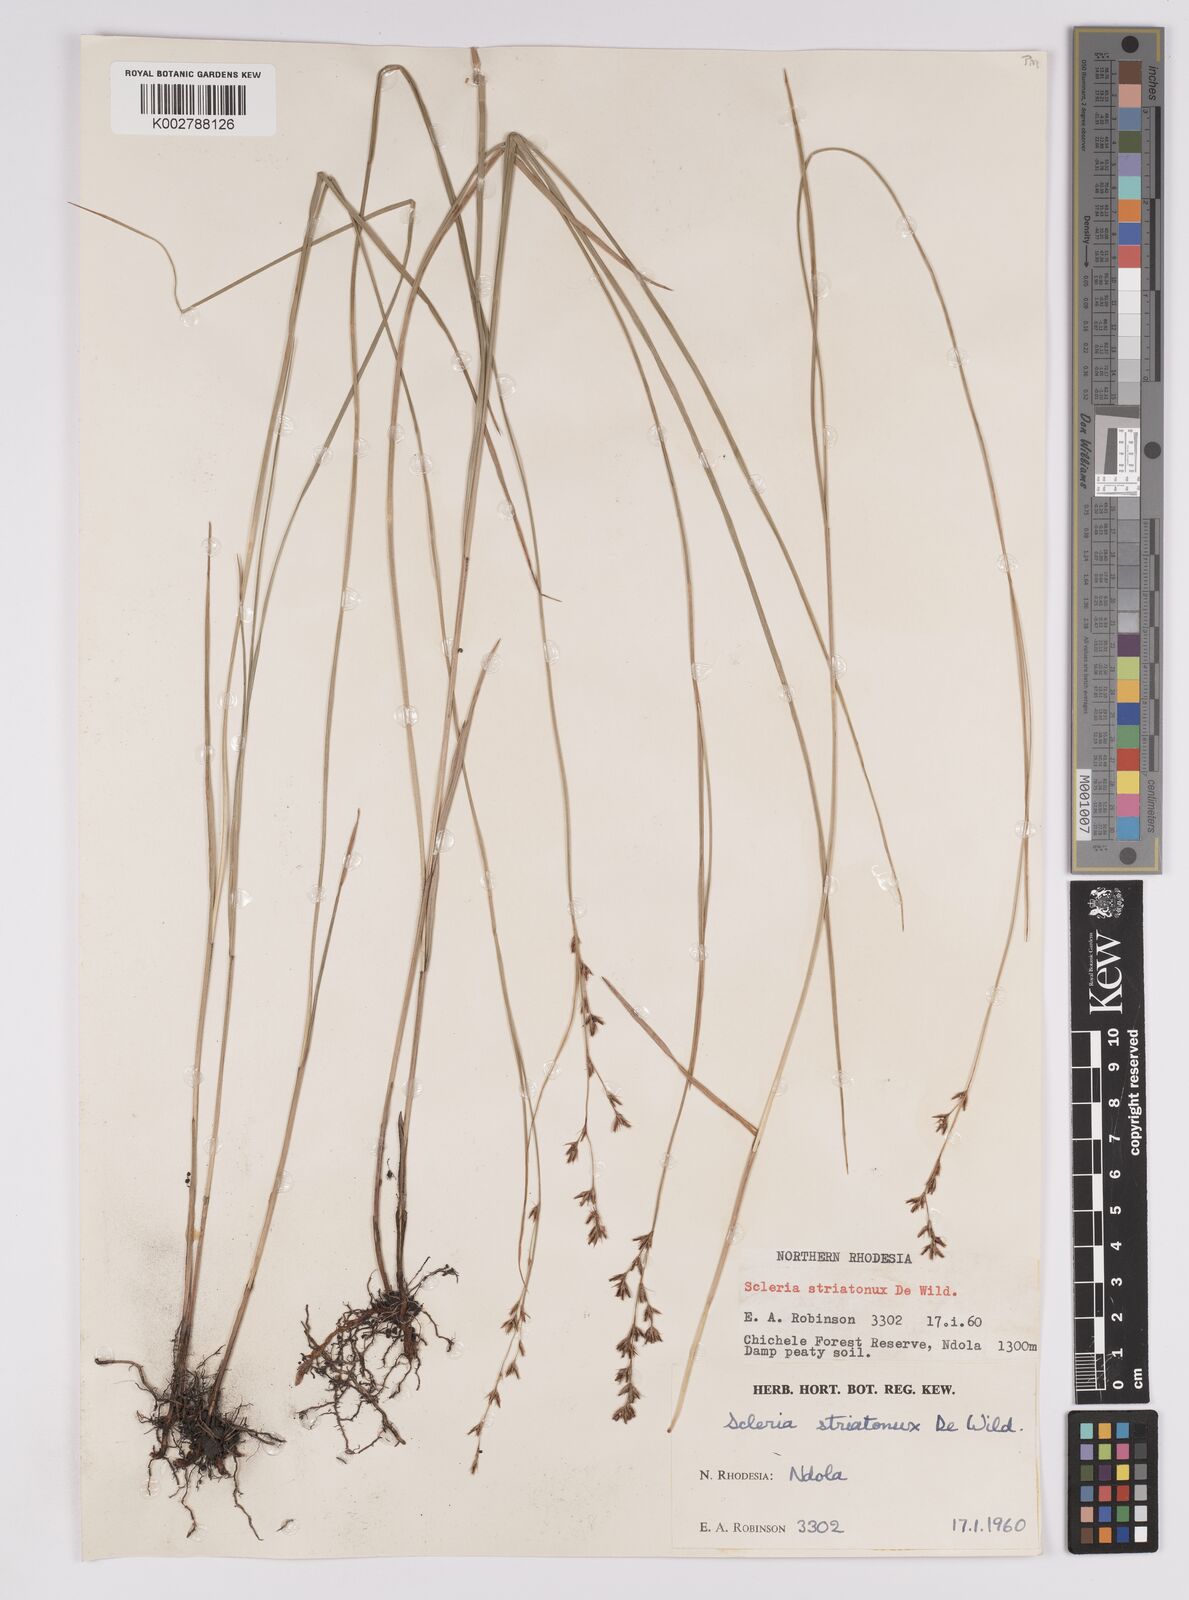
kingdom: Plantae
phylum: Tracheophyta
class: Liliopsida
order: Poales
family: Cyperaceae
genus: Scleria
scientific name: Scleria woodii
